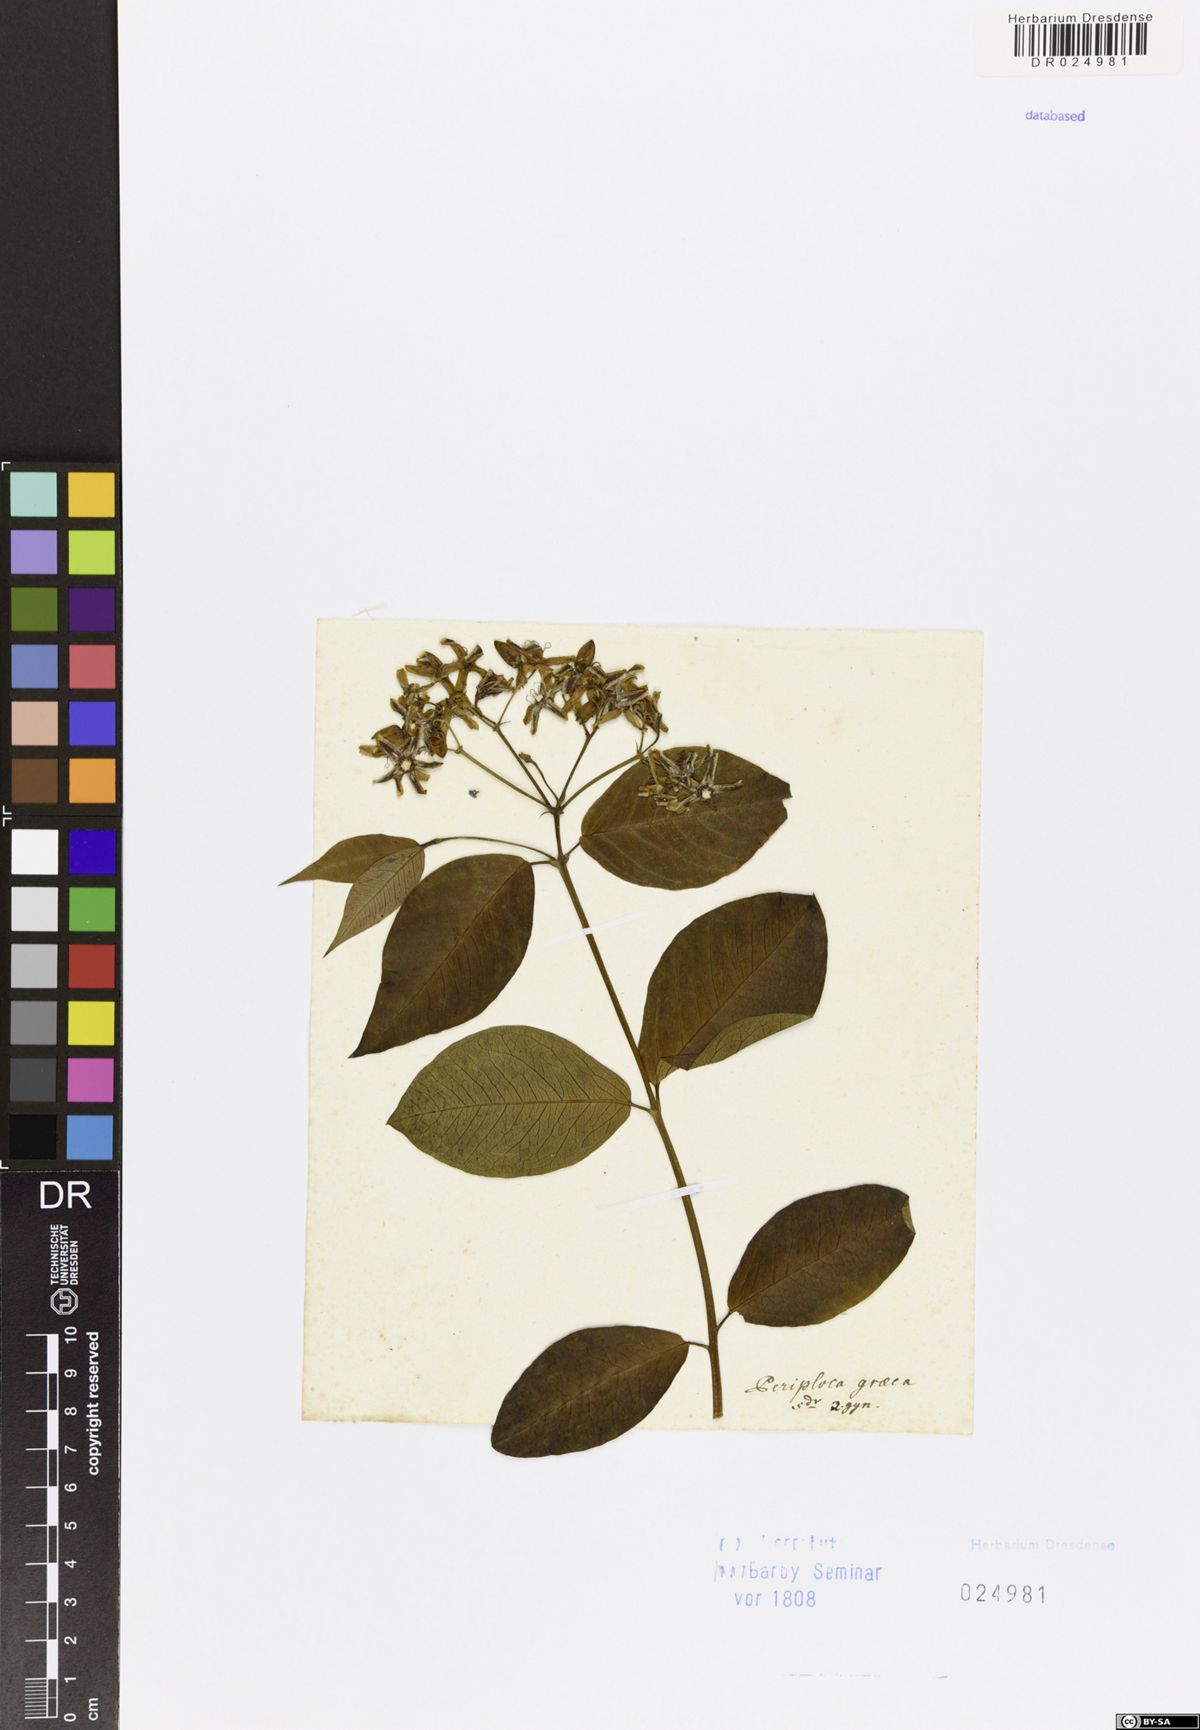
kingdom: Plantae
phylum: Tracheophyta
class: Magnoliopsida
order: Gentianales
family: Apocynaceae
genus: Periploca
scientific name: Periploca graeca
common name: Silkvine
